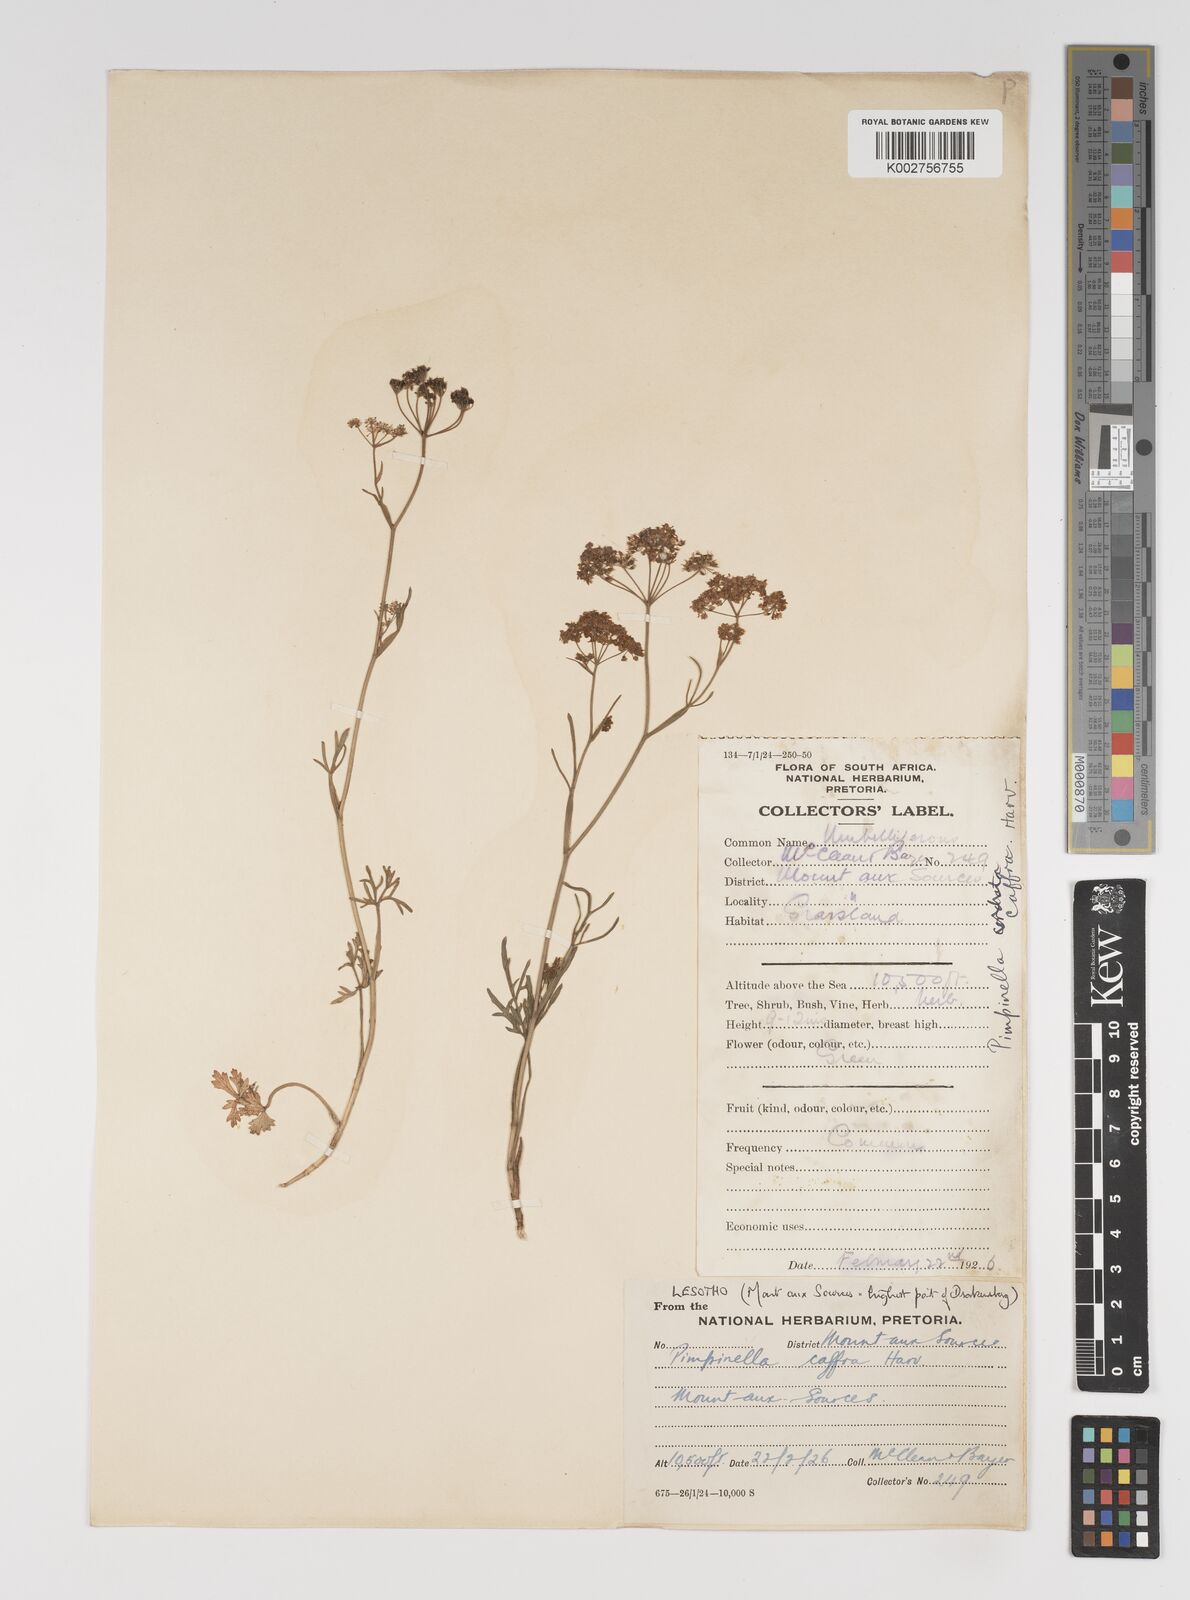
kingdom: Plantae
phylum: Tracheophyta
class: Magnoliopsida
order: Apiales
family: Apiaceae
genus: Pimpinella
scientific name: Pimpinella
